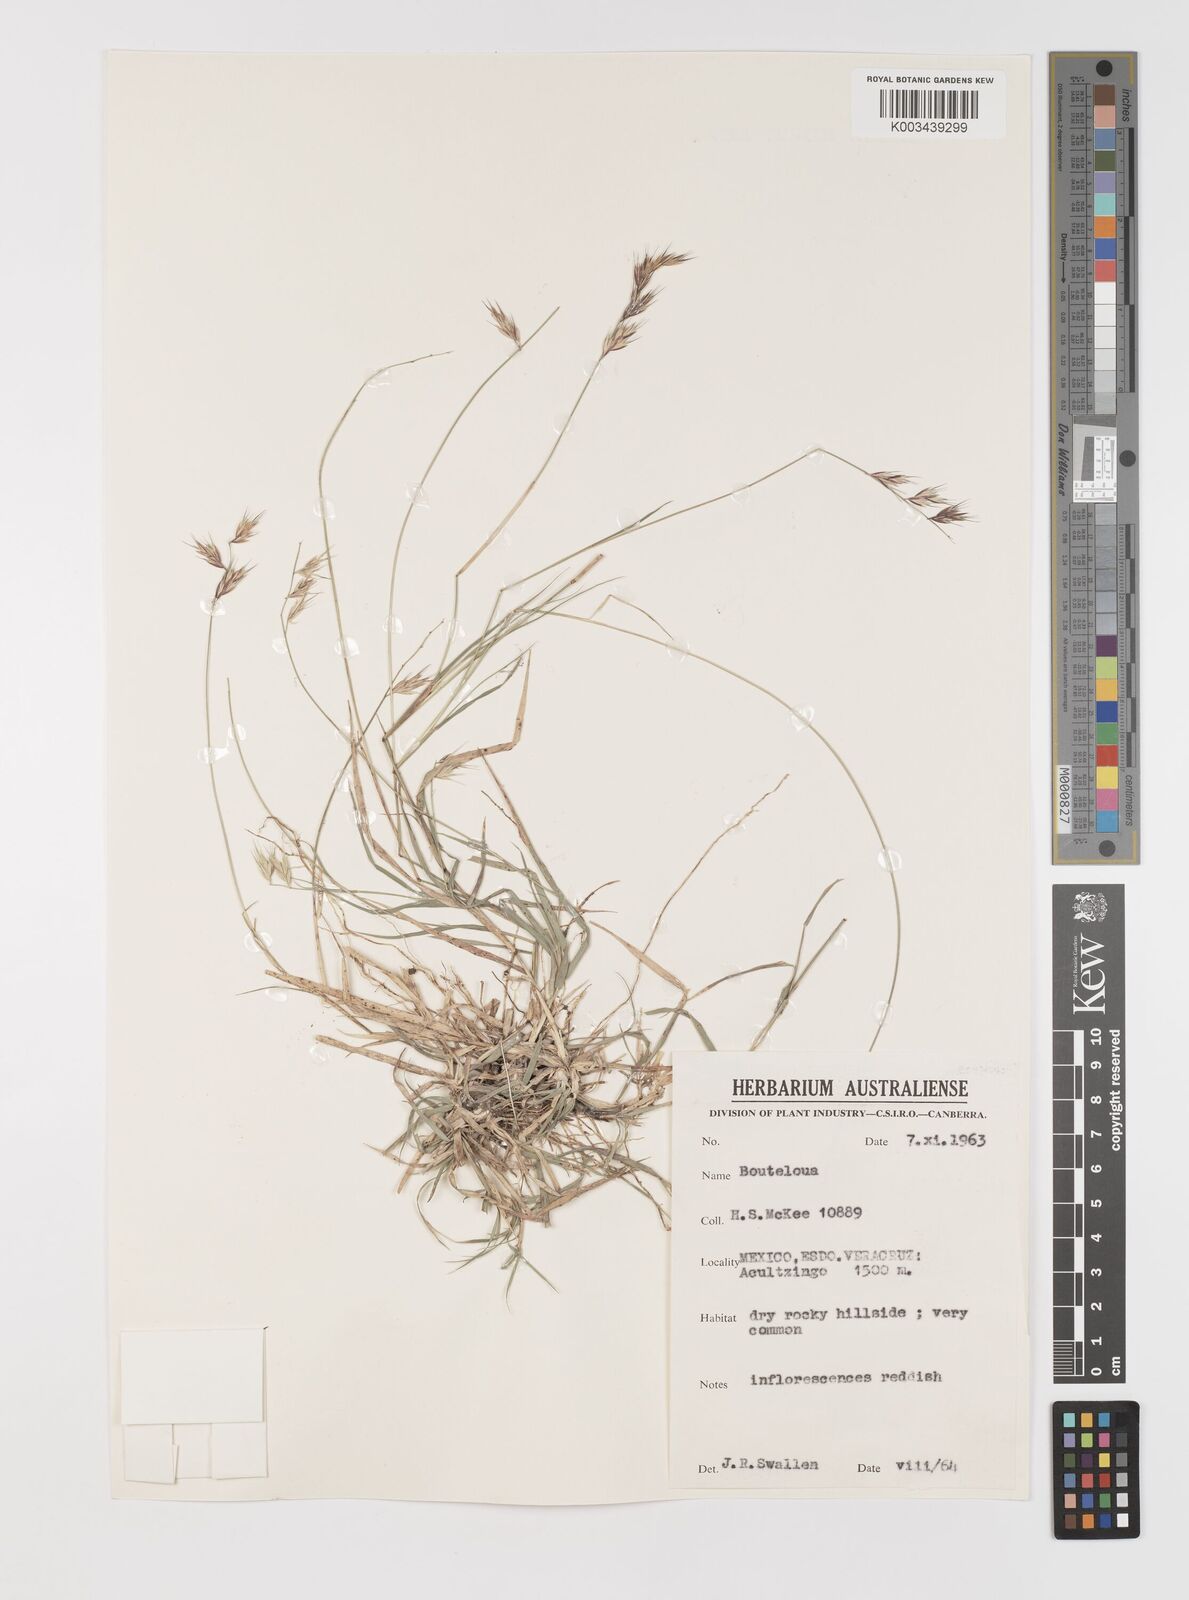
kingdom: Plantae
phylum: Tracheophyta
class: Liliopsida
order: Poales
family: Poaceae
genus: Bouteloua
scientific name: Bouteloua repens
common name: Slender grama
